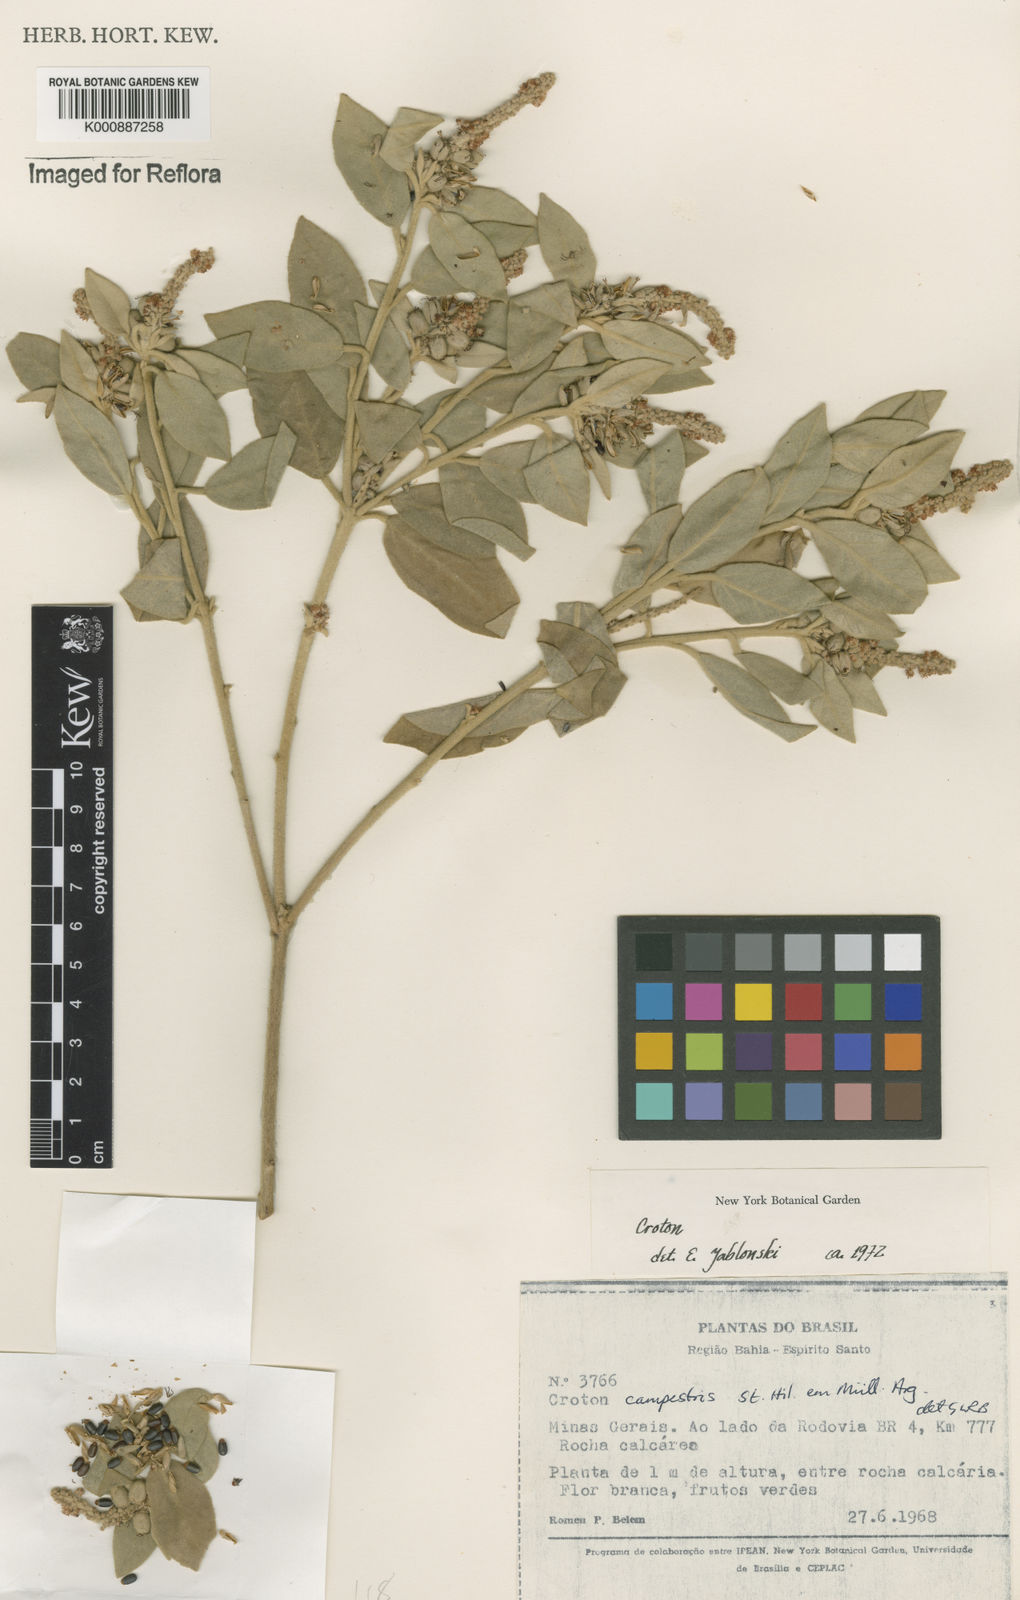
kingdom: Plantae
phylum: Tracheophyta
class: Magnoliopsida
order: Malpighiales
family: Euphorbiaceae
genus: Croton
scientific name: Croton campestris
